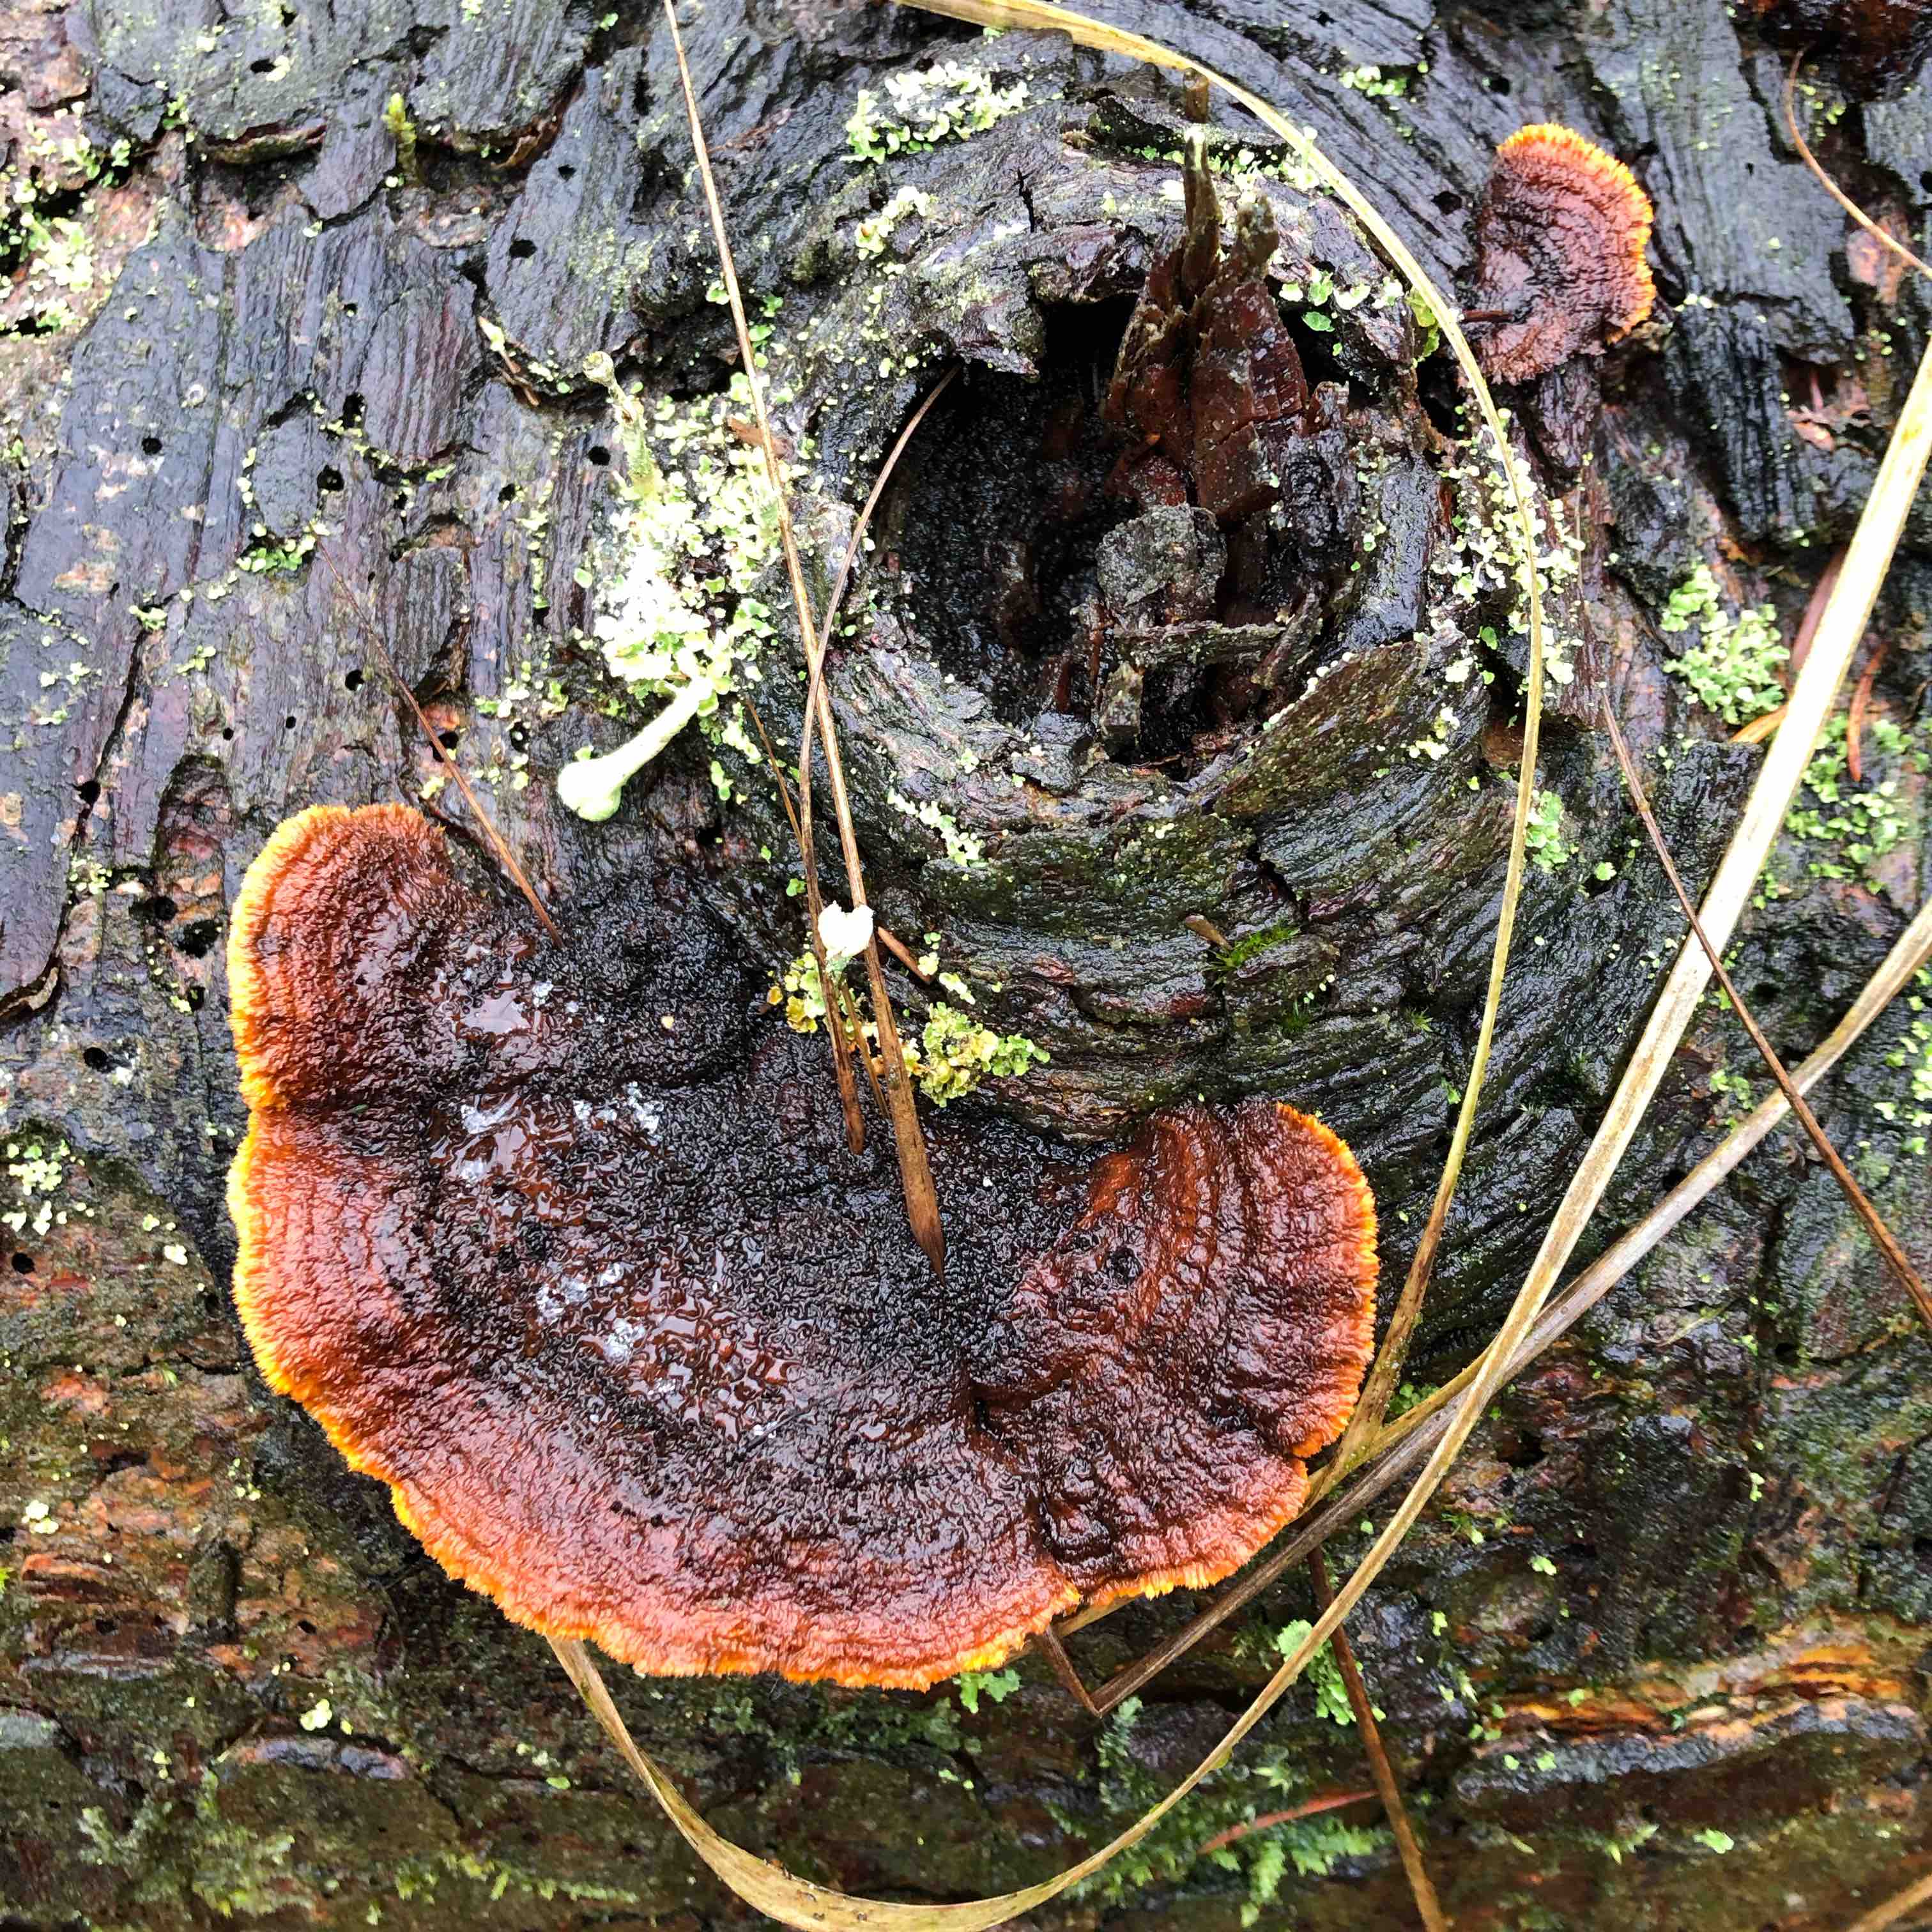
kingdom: Fungi
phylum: Basidiomycota
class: Agaricomycetes
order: Gloeophyllales
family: Gloeophyllaceae
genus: Gloeophyllum
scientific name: Gloeophyllum sepiarium
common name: fyrre-korkhat
